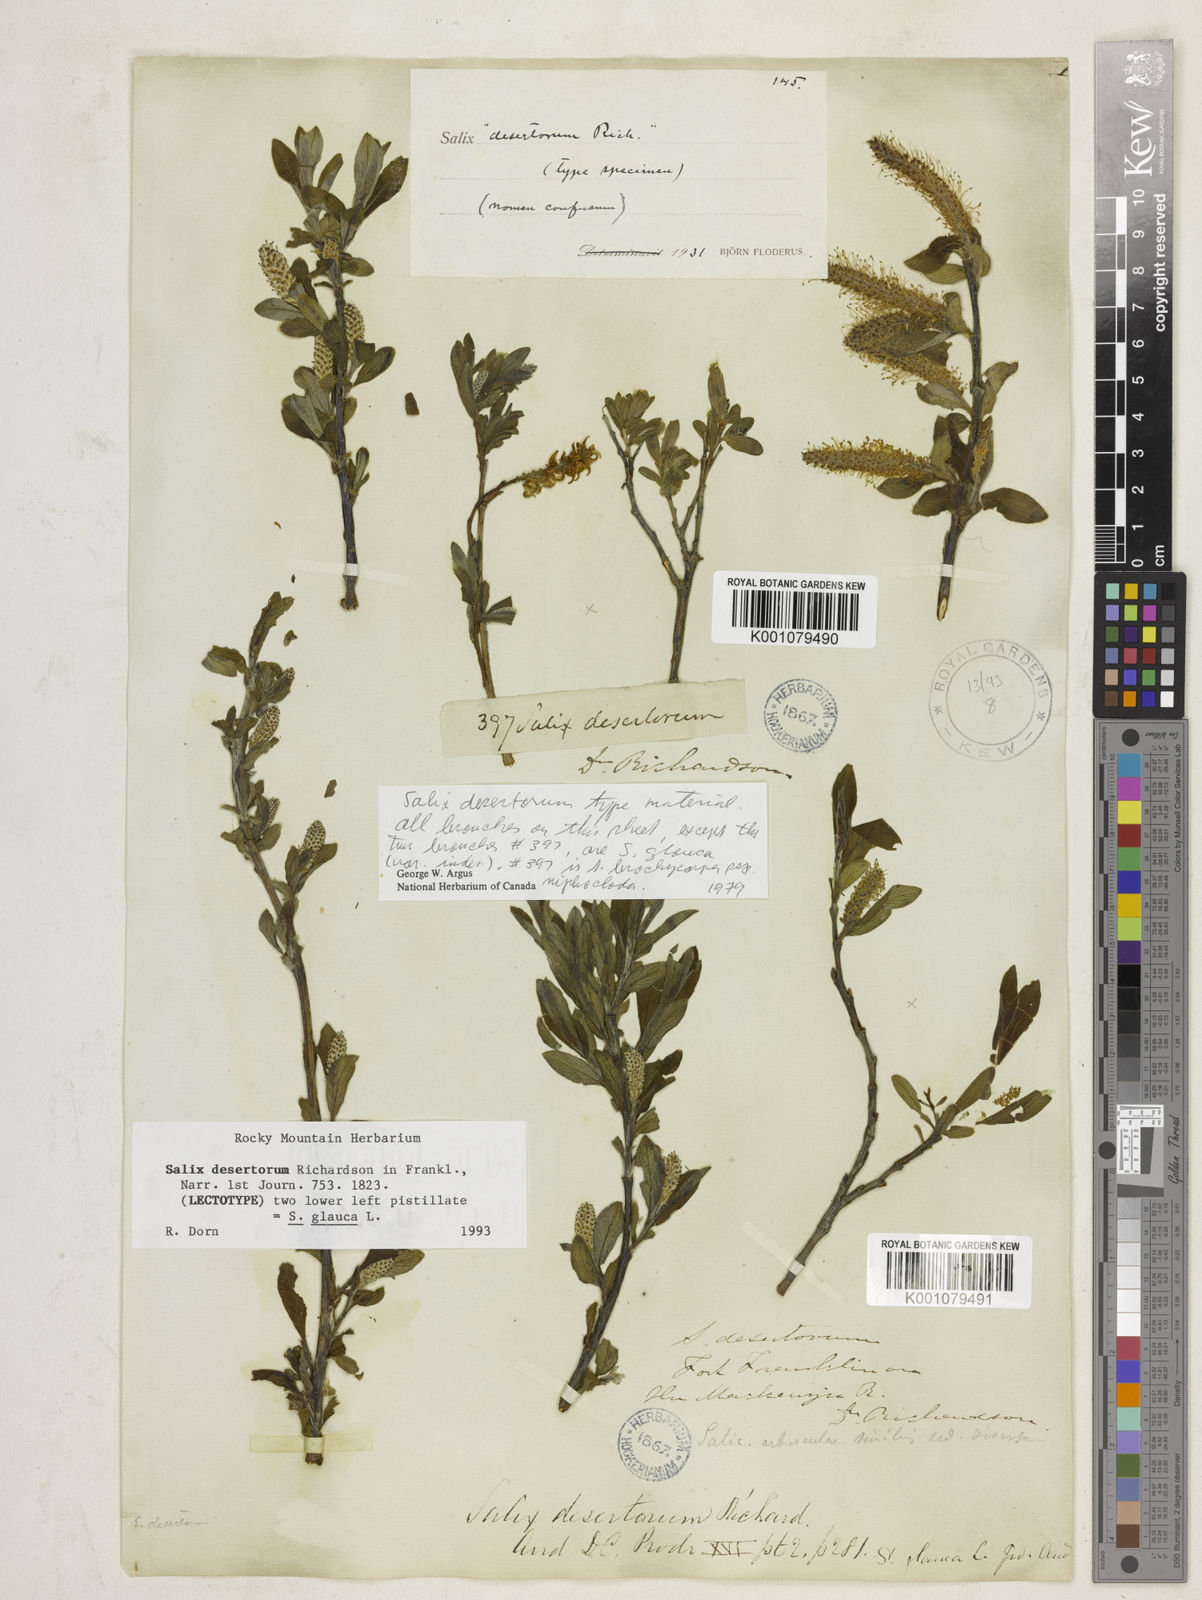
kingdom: Plantae
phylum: Tracheophyta
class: Magnoliopsida
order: Malpighiales
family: Salicaceae
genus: Salix
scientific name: Salix glauca
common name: Glaucous willow
